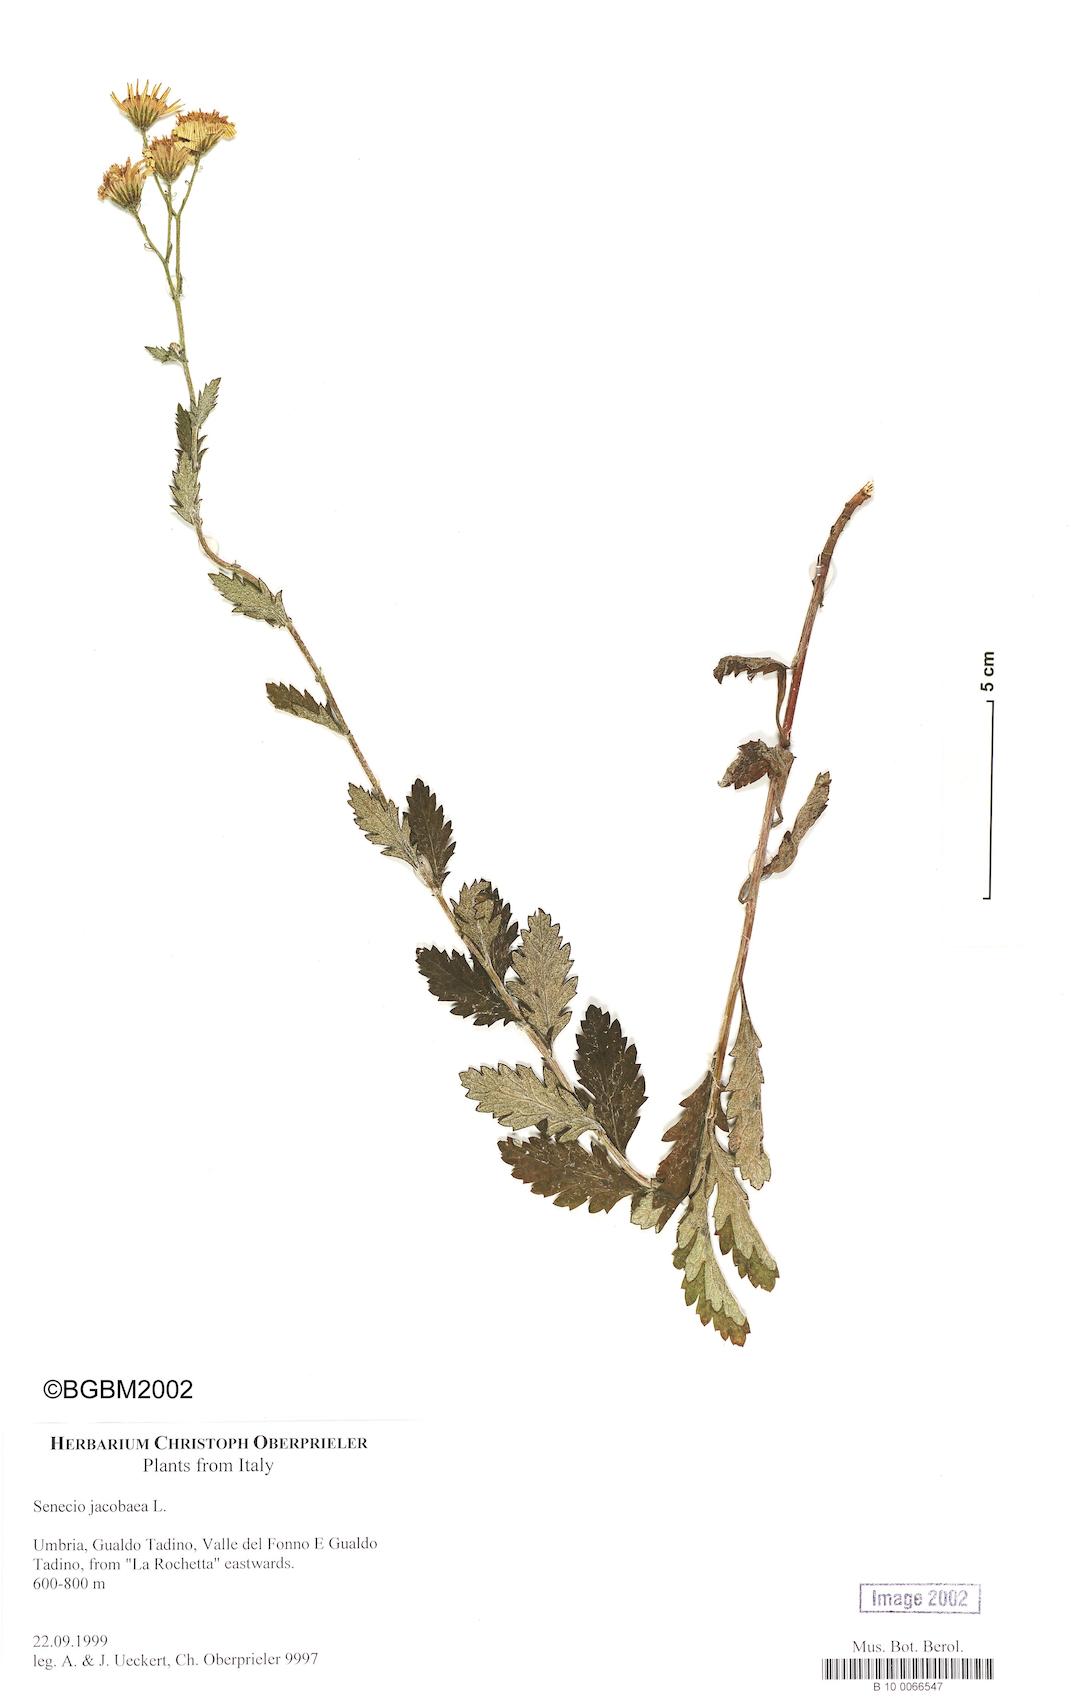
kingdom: Plantae
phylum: Tracheophyta
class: Magnoliopsida
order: Asterales
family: Asteraceae
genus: Jacobaea
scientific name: Jacobaea vulgaris
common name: Stinking willie
